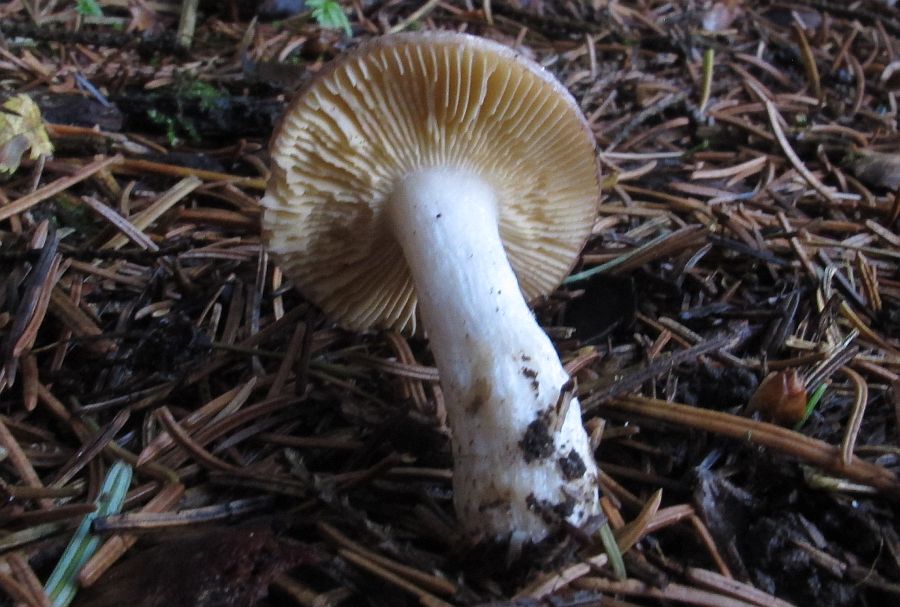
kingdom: Fungi
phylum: Basidiomycota
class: Agaricomycetes
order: Russulales
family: Russulaceae
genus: Russula
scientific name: Russula nauseosa
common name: spinkel skørhat
